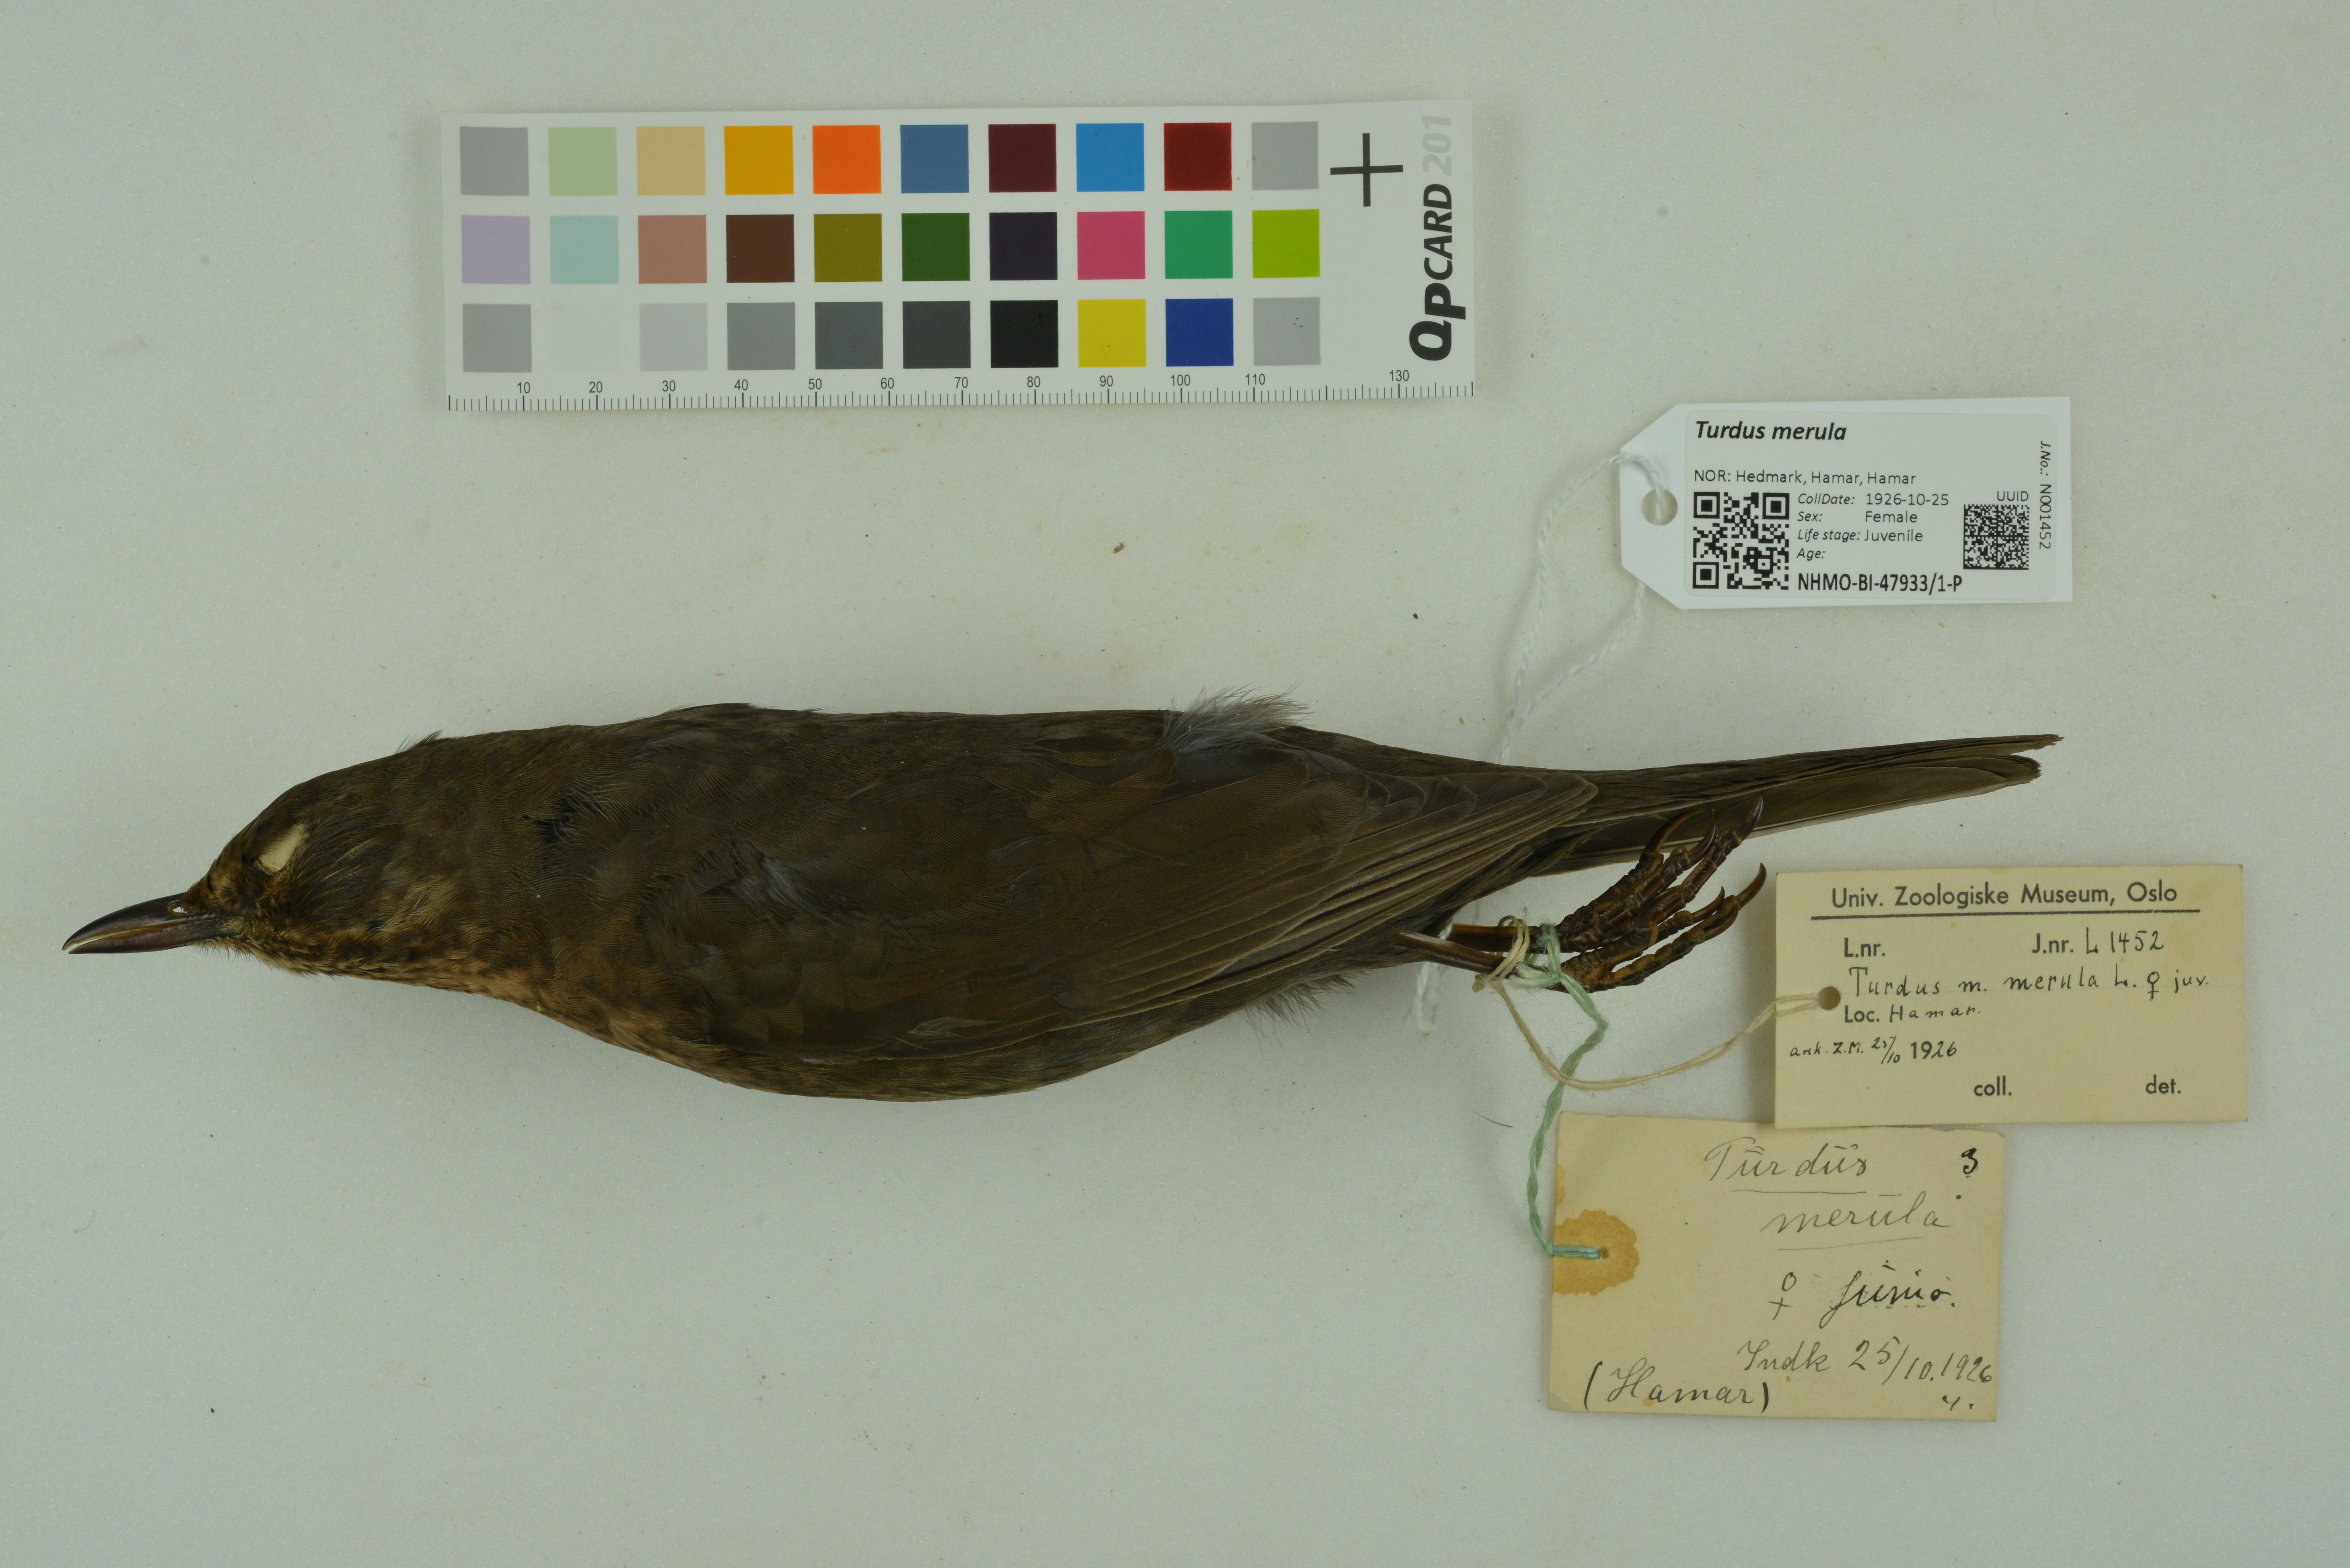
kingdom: Animalia
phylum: Chordata
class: Aves
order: Passeriformes
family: Turdidae
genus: Turdus
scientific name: Turdus merula
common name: Common blackbird
